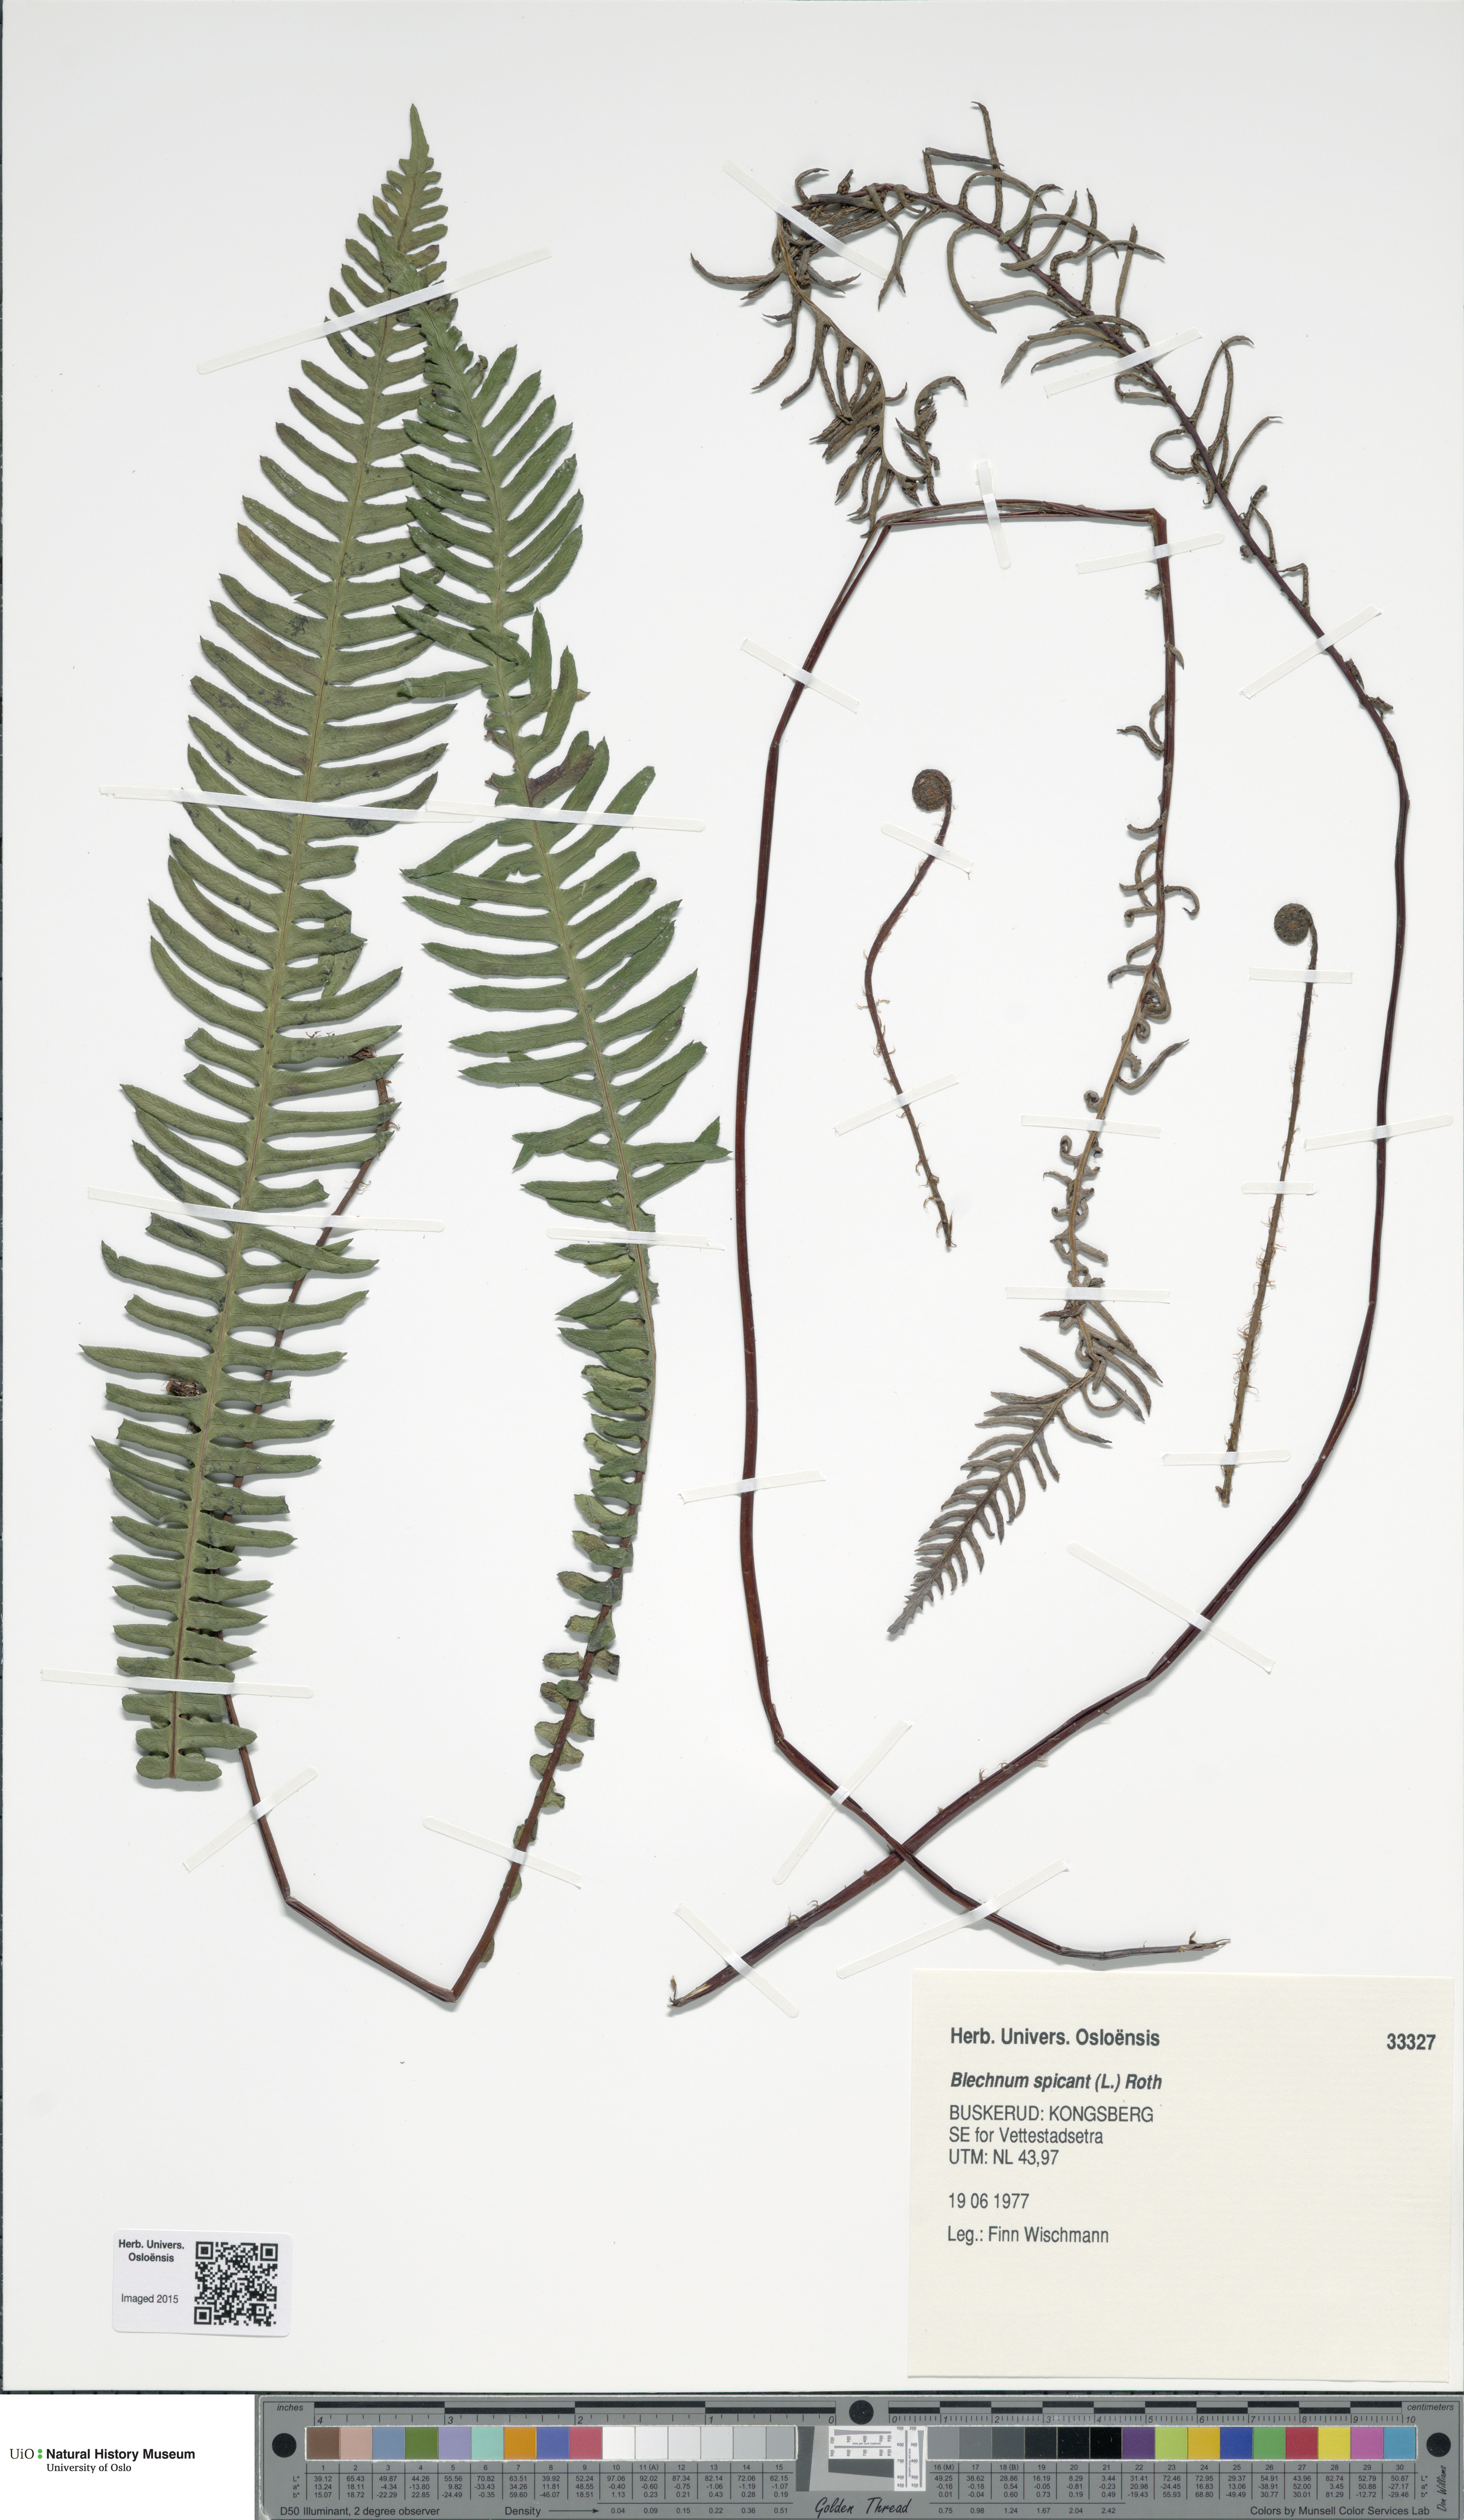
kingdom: Plantae
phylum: Tracheophyta
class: Polypodiopsida
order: Polypodiales
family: Blechnaceae
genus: Struthiopteris
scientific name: Struthiopteris spicant
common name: Deer fern
